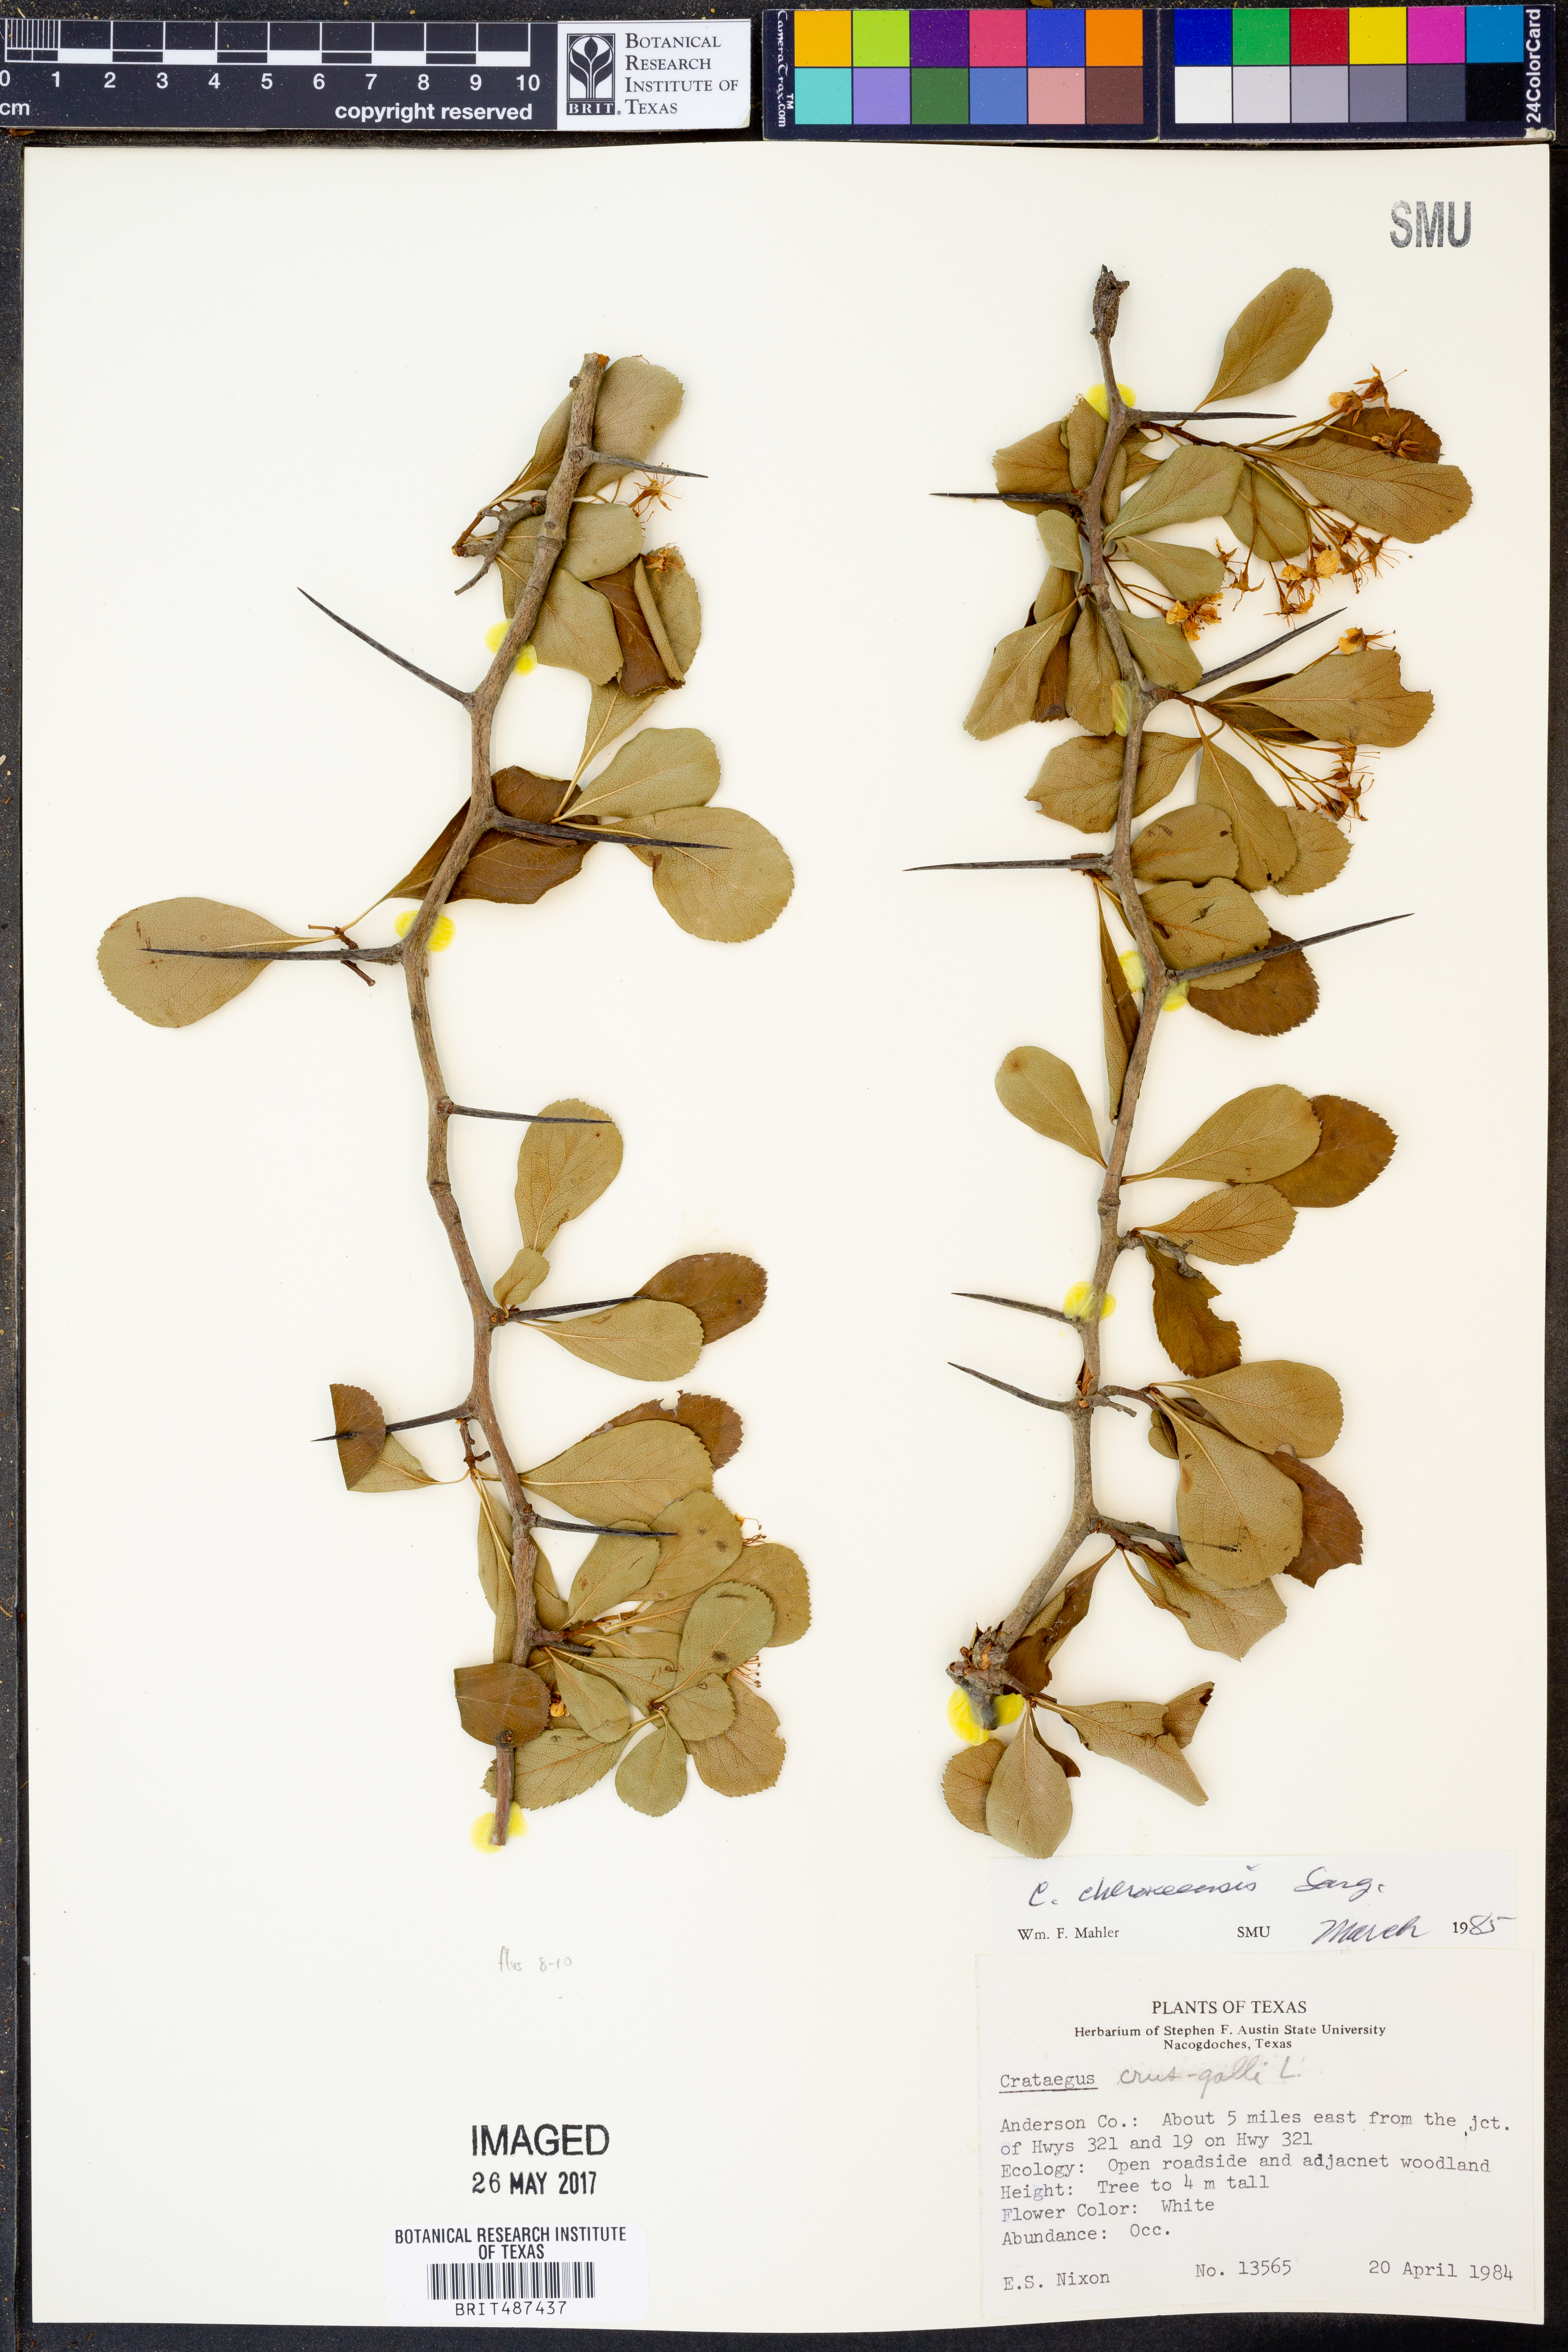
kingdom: Plantae
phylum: Tracheophyta
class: Magnoliopsida
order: Rosales
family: Rosaceae
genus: Crataegus
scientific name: Crataegus crus-galli
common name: Cockspurthorn
